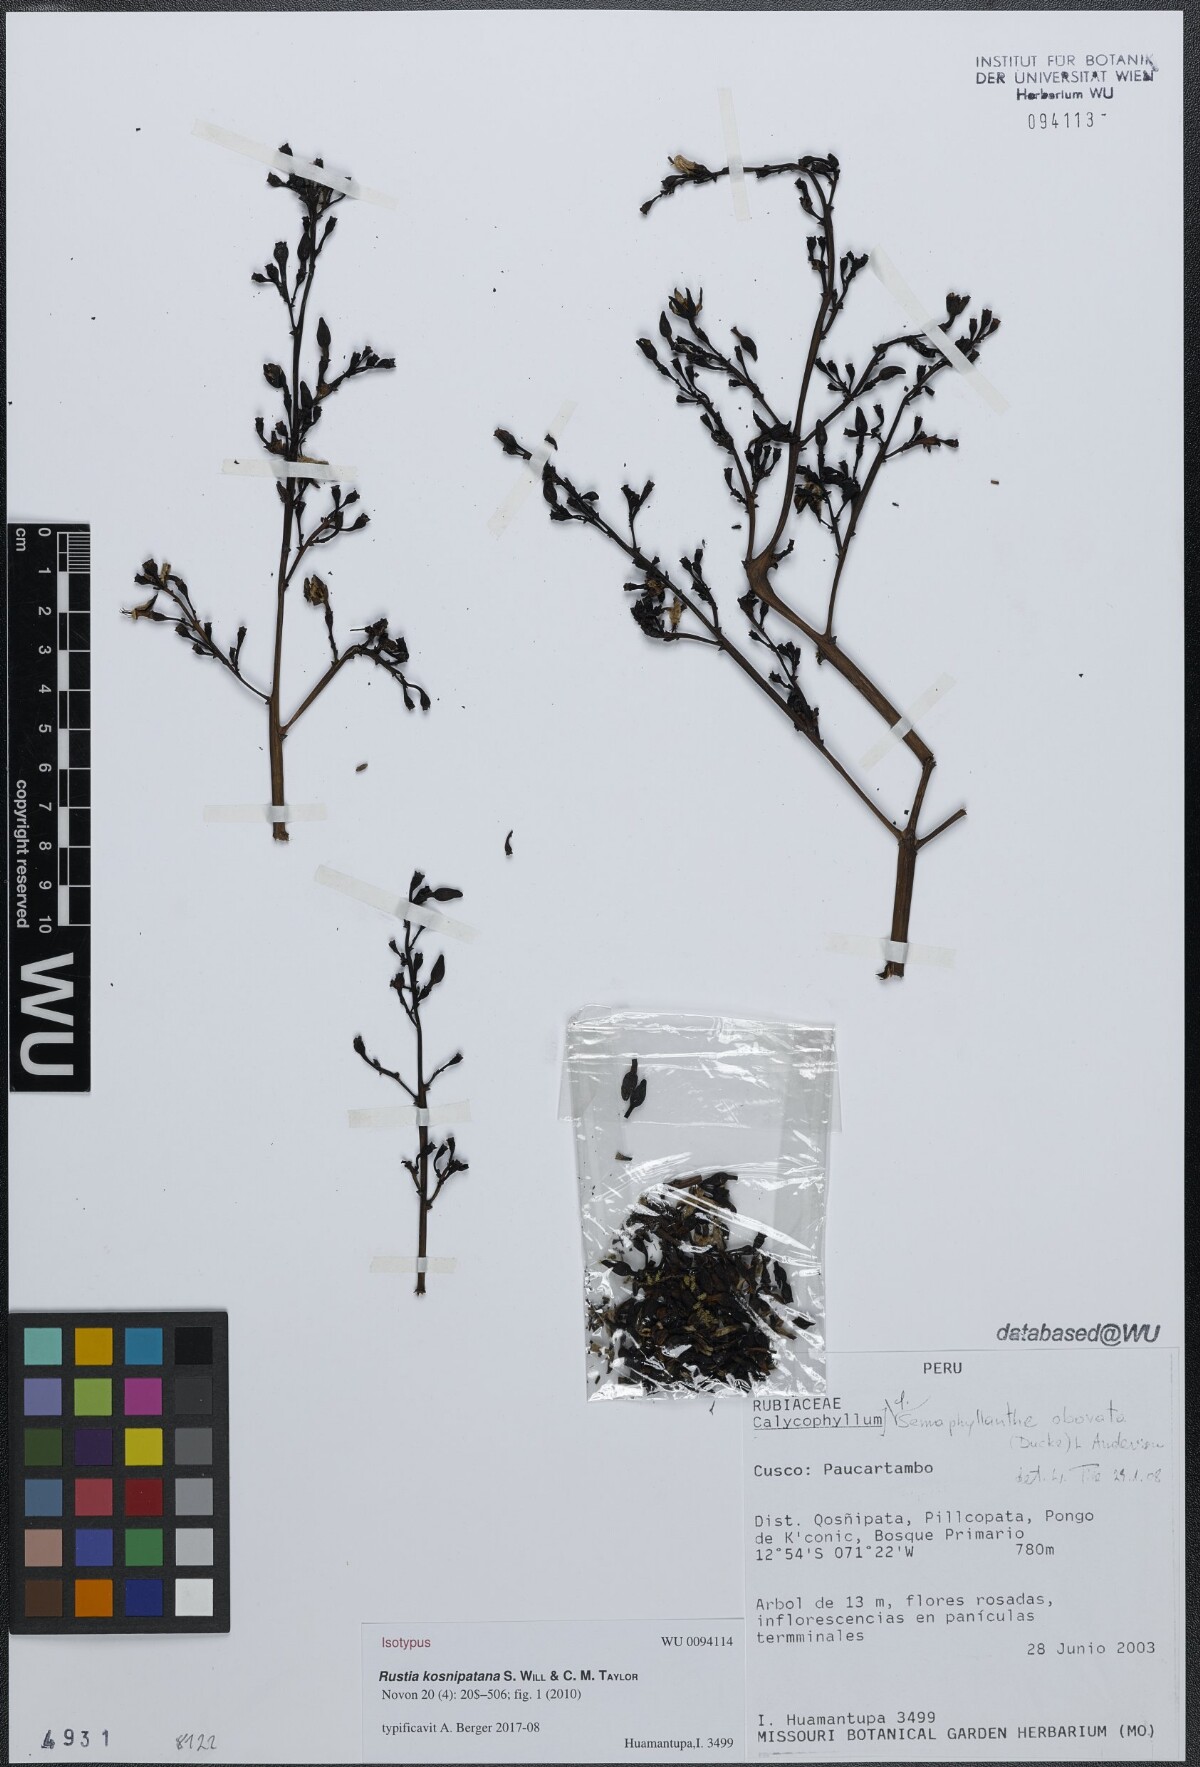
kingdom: Plantae
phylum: Tracheophyta
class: Magnoliopsida
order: Gentianales
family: Rubiaceae
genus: Rustia
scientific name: Rustia kosnipatana
